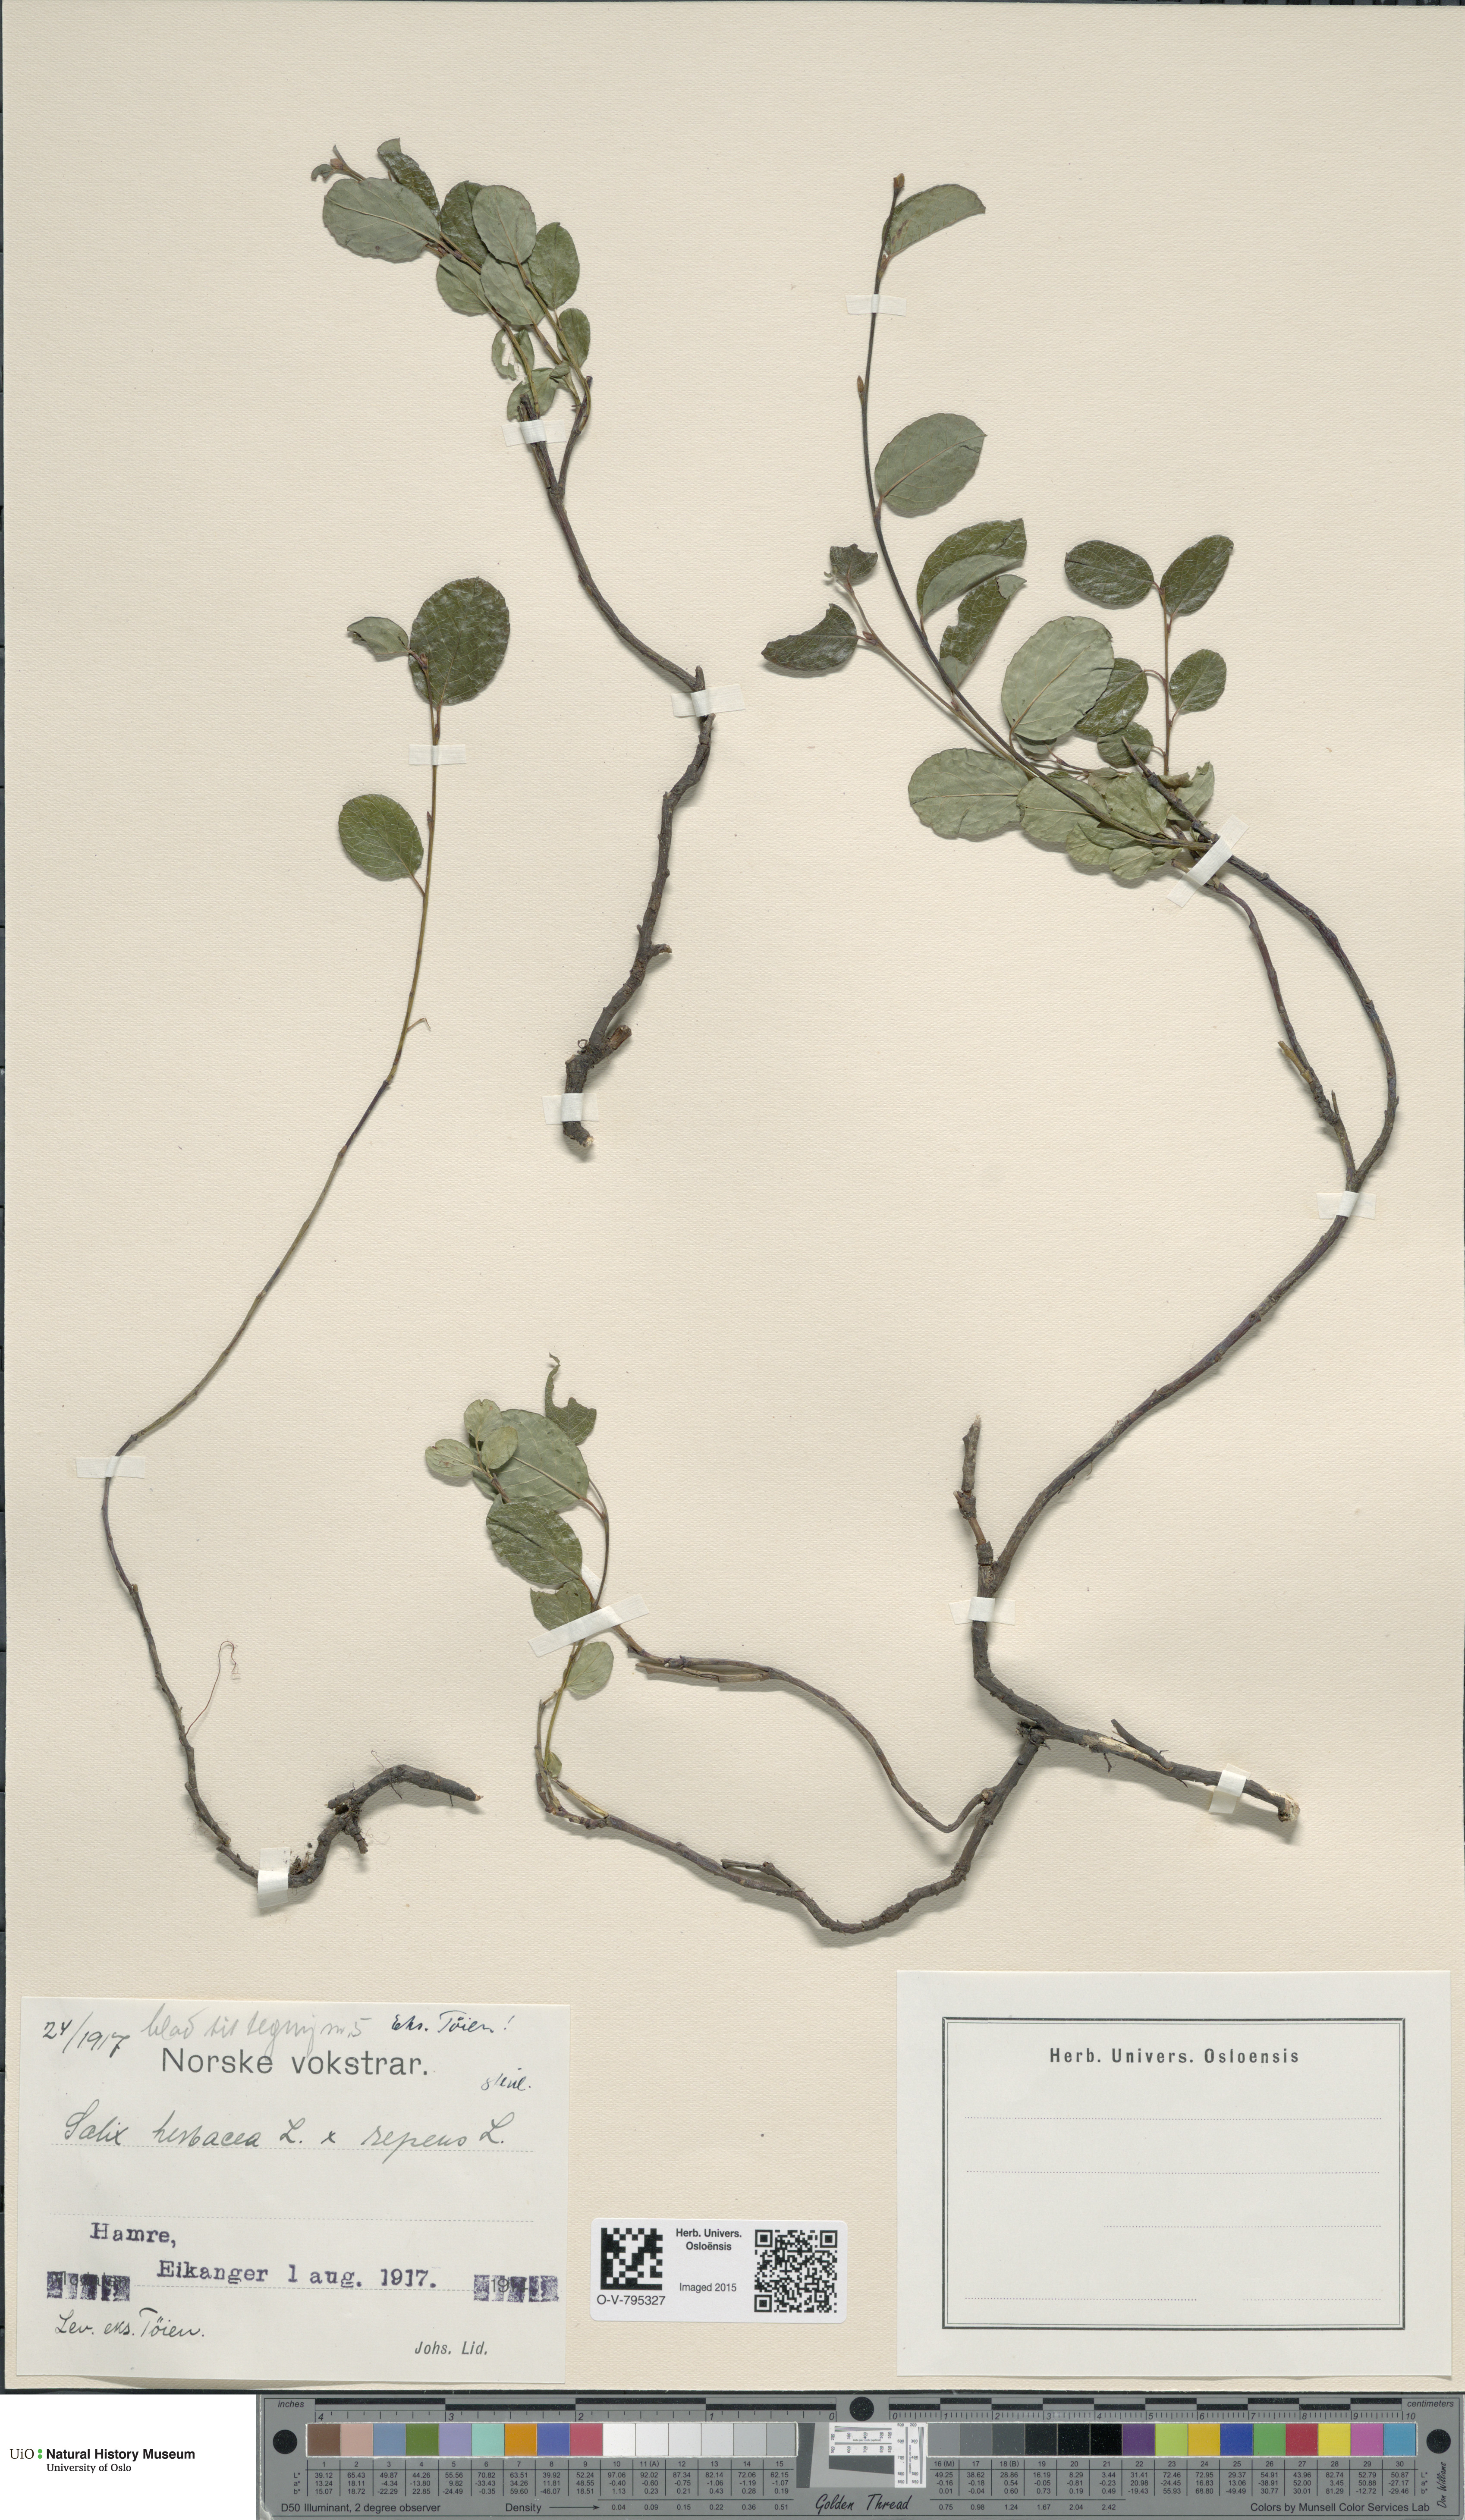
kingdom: Plantae
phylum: Tracheophyta
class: Magnoliopsida
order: Malpighiales
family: Salicaceae
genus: Salix
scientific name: Salix
